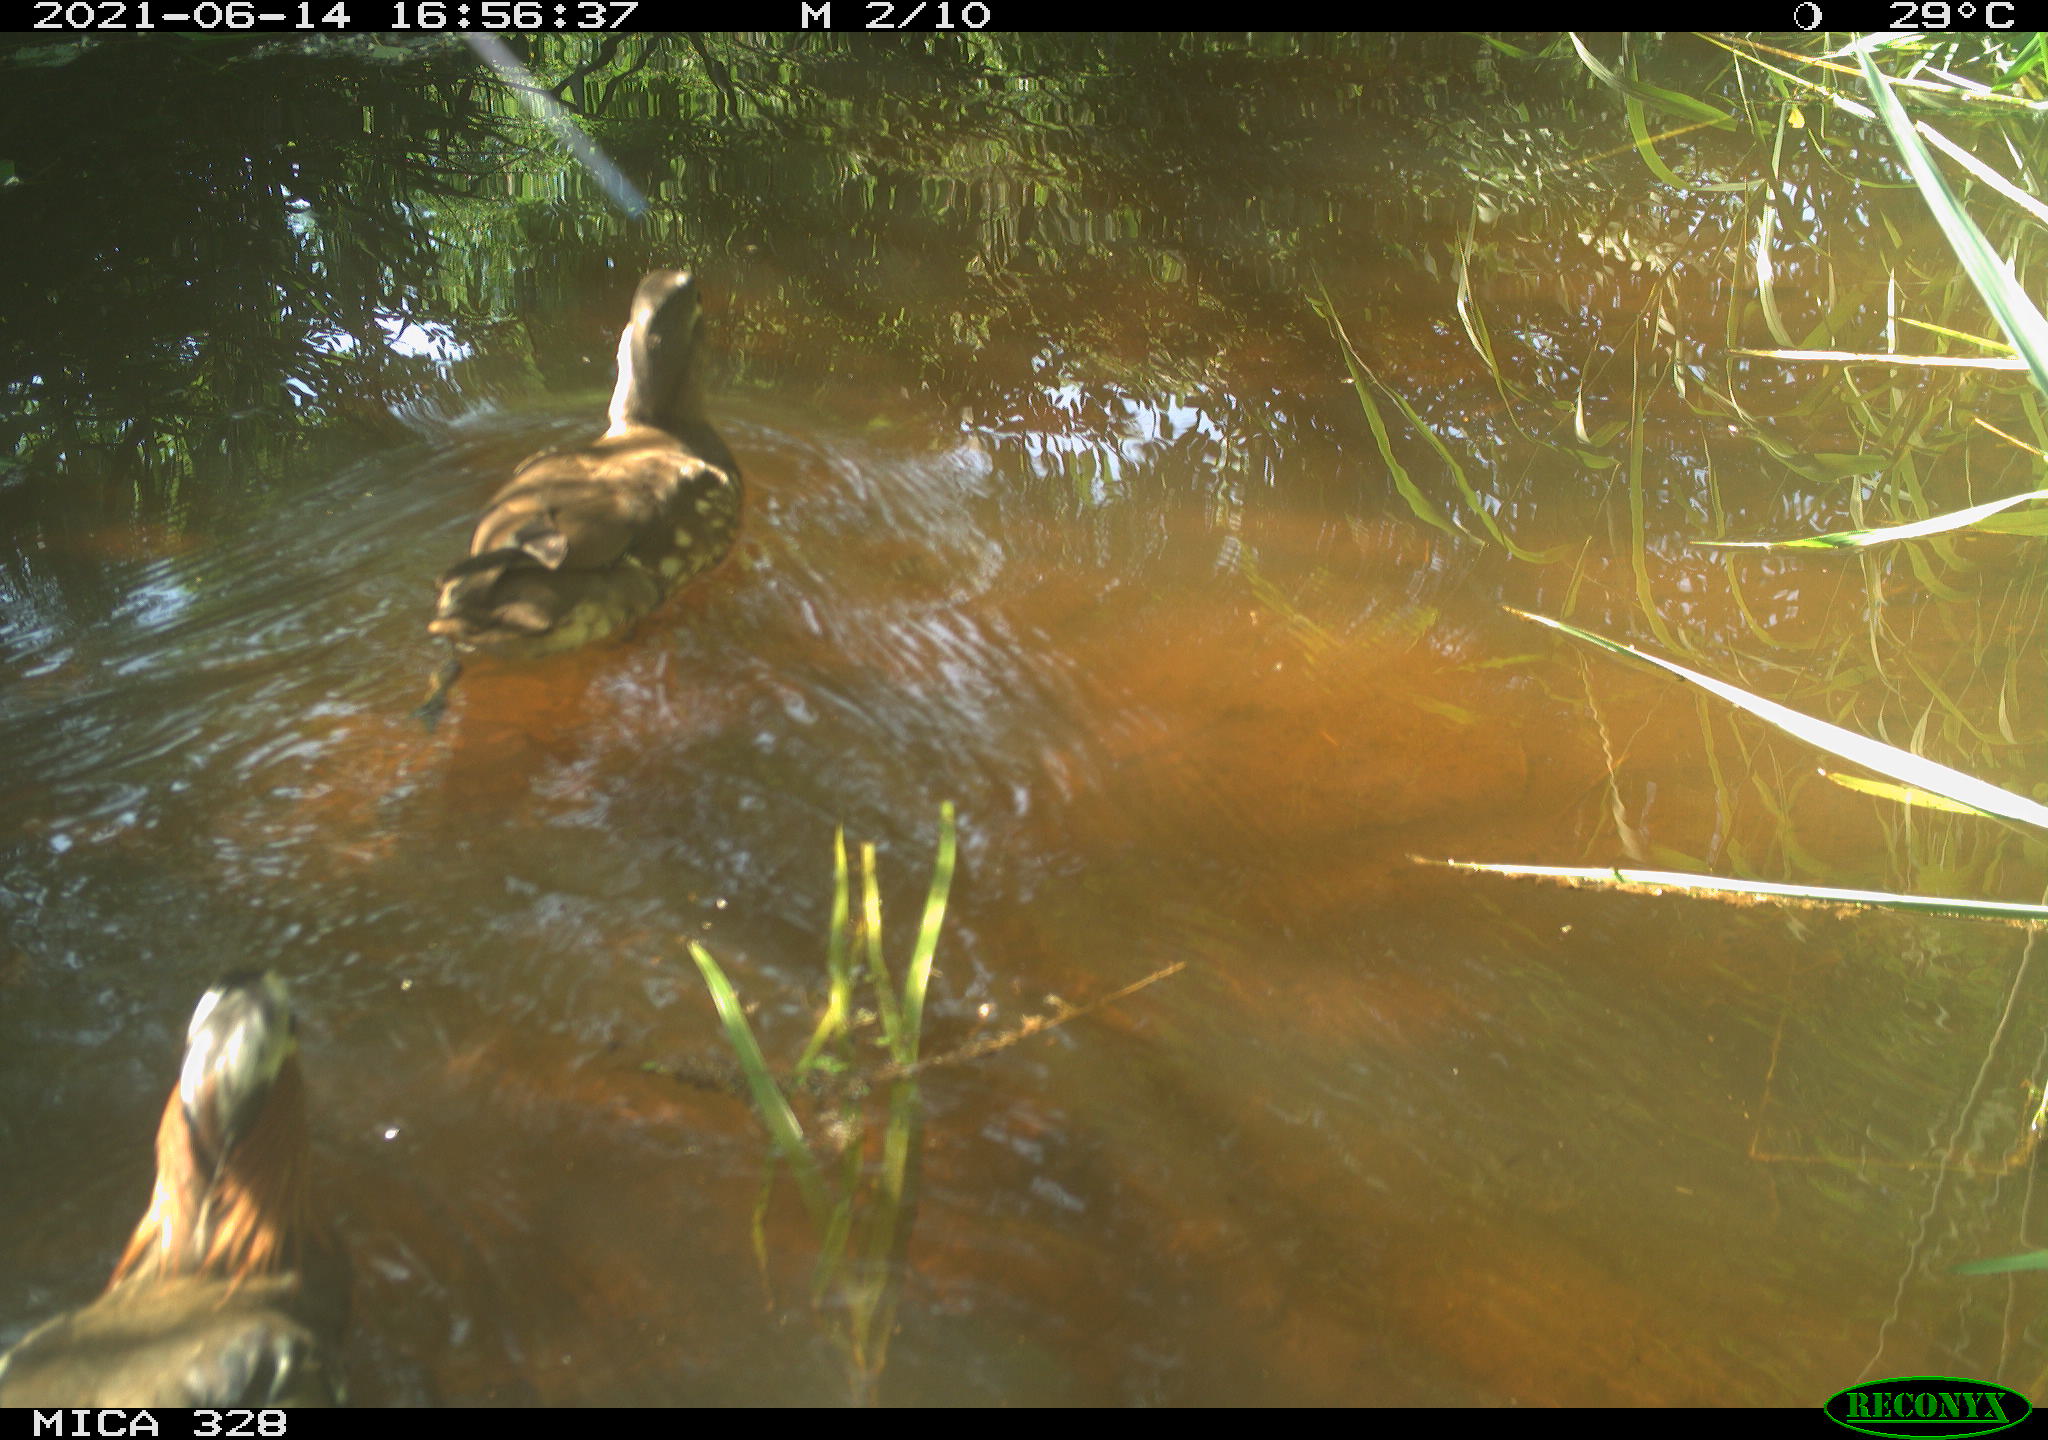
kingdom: Animalia
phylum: Chordata
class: Aves
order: Anseriformes
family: Anatidae
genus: Aix
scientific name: Aix galericulata
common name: Mandarin duck
